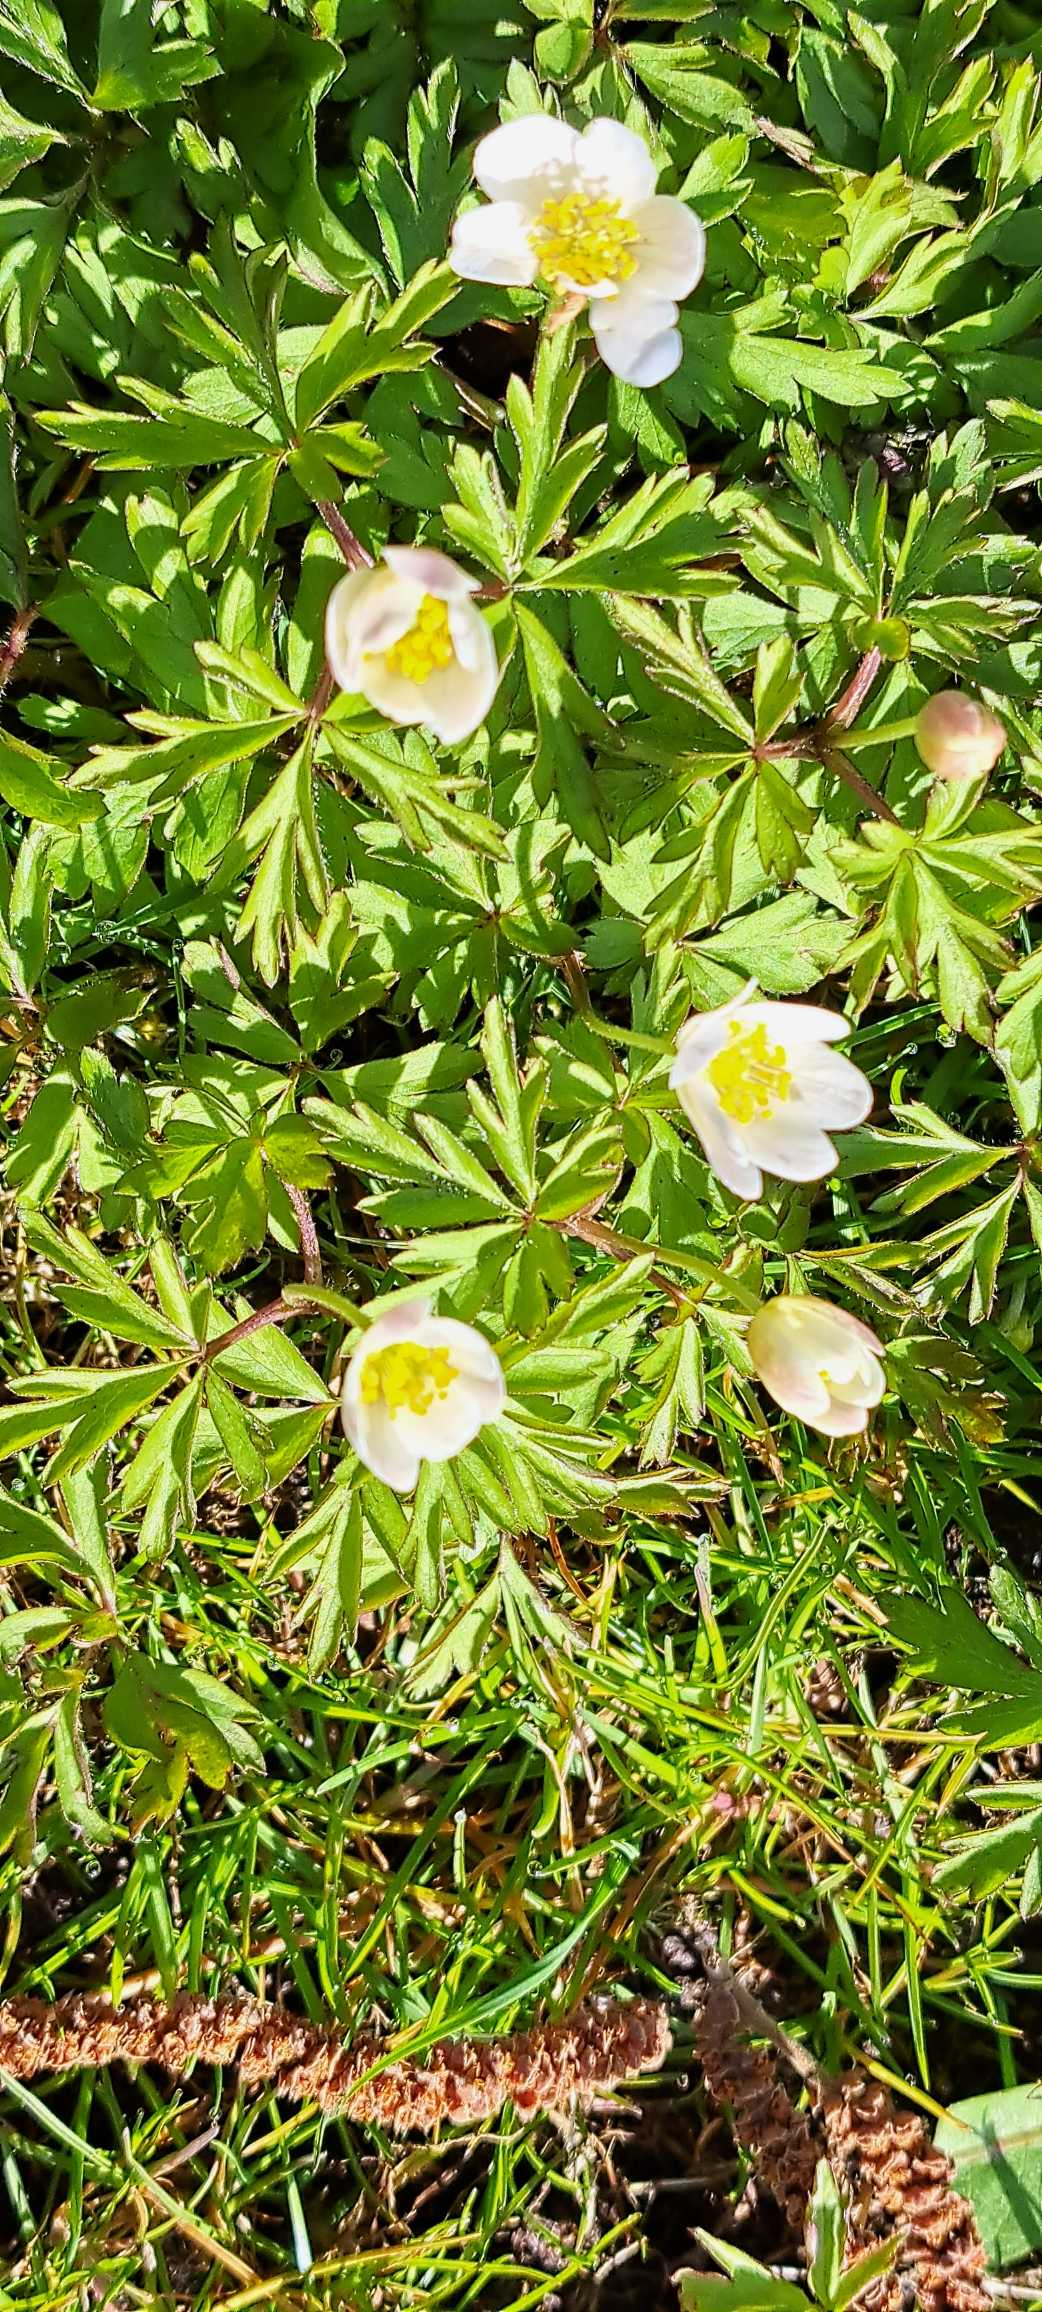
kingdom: Plantae
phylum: Tracheophyta
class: Magnoliopsida
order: Ranunculales
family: Ranunculaceae
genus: Anemone
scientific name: Anemone nemorosa
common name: Hvid anemone
